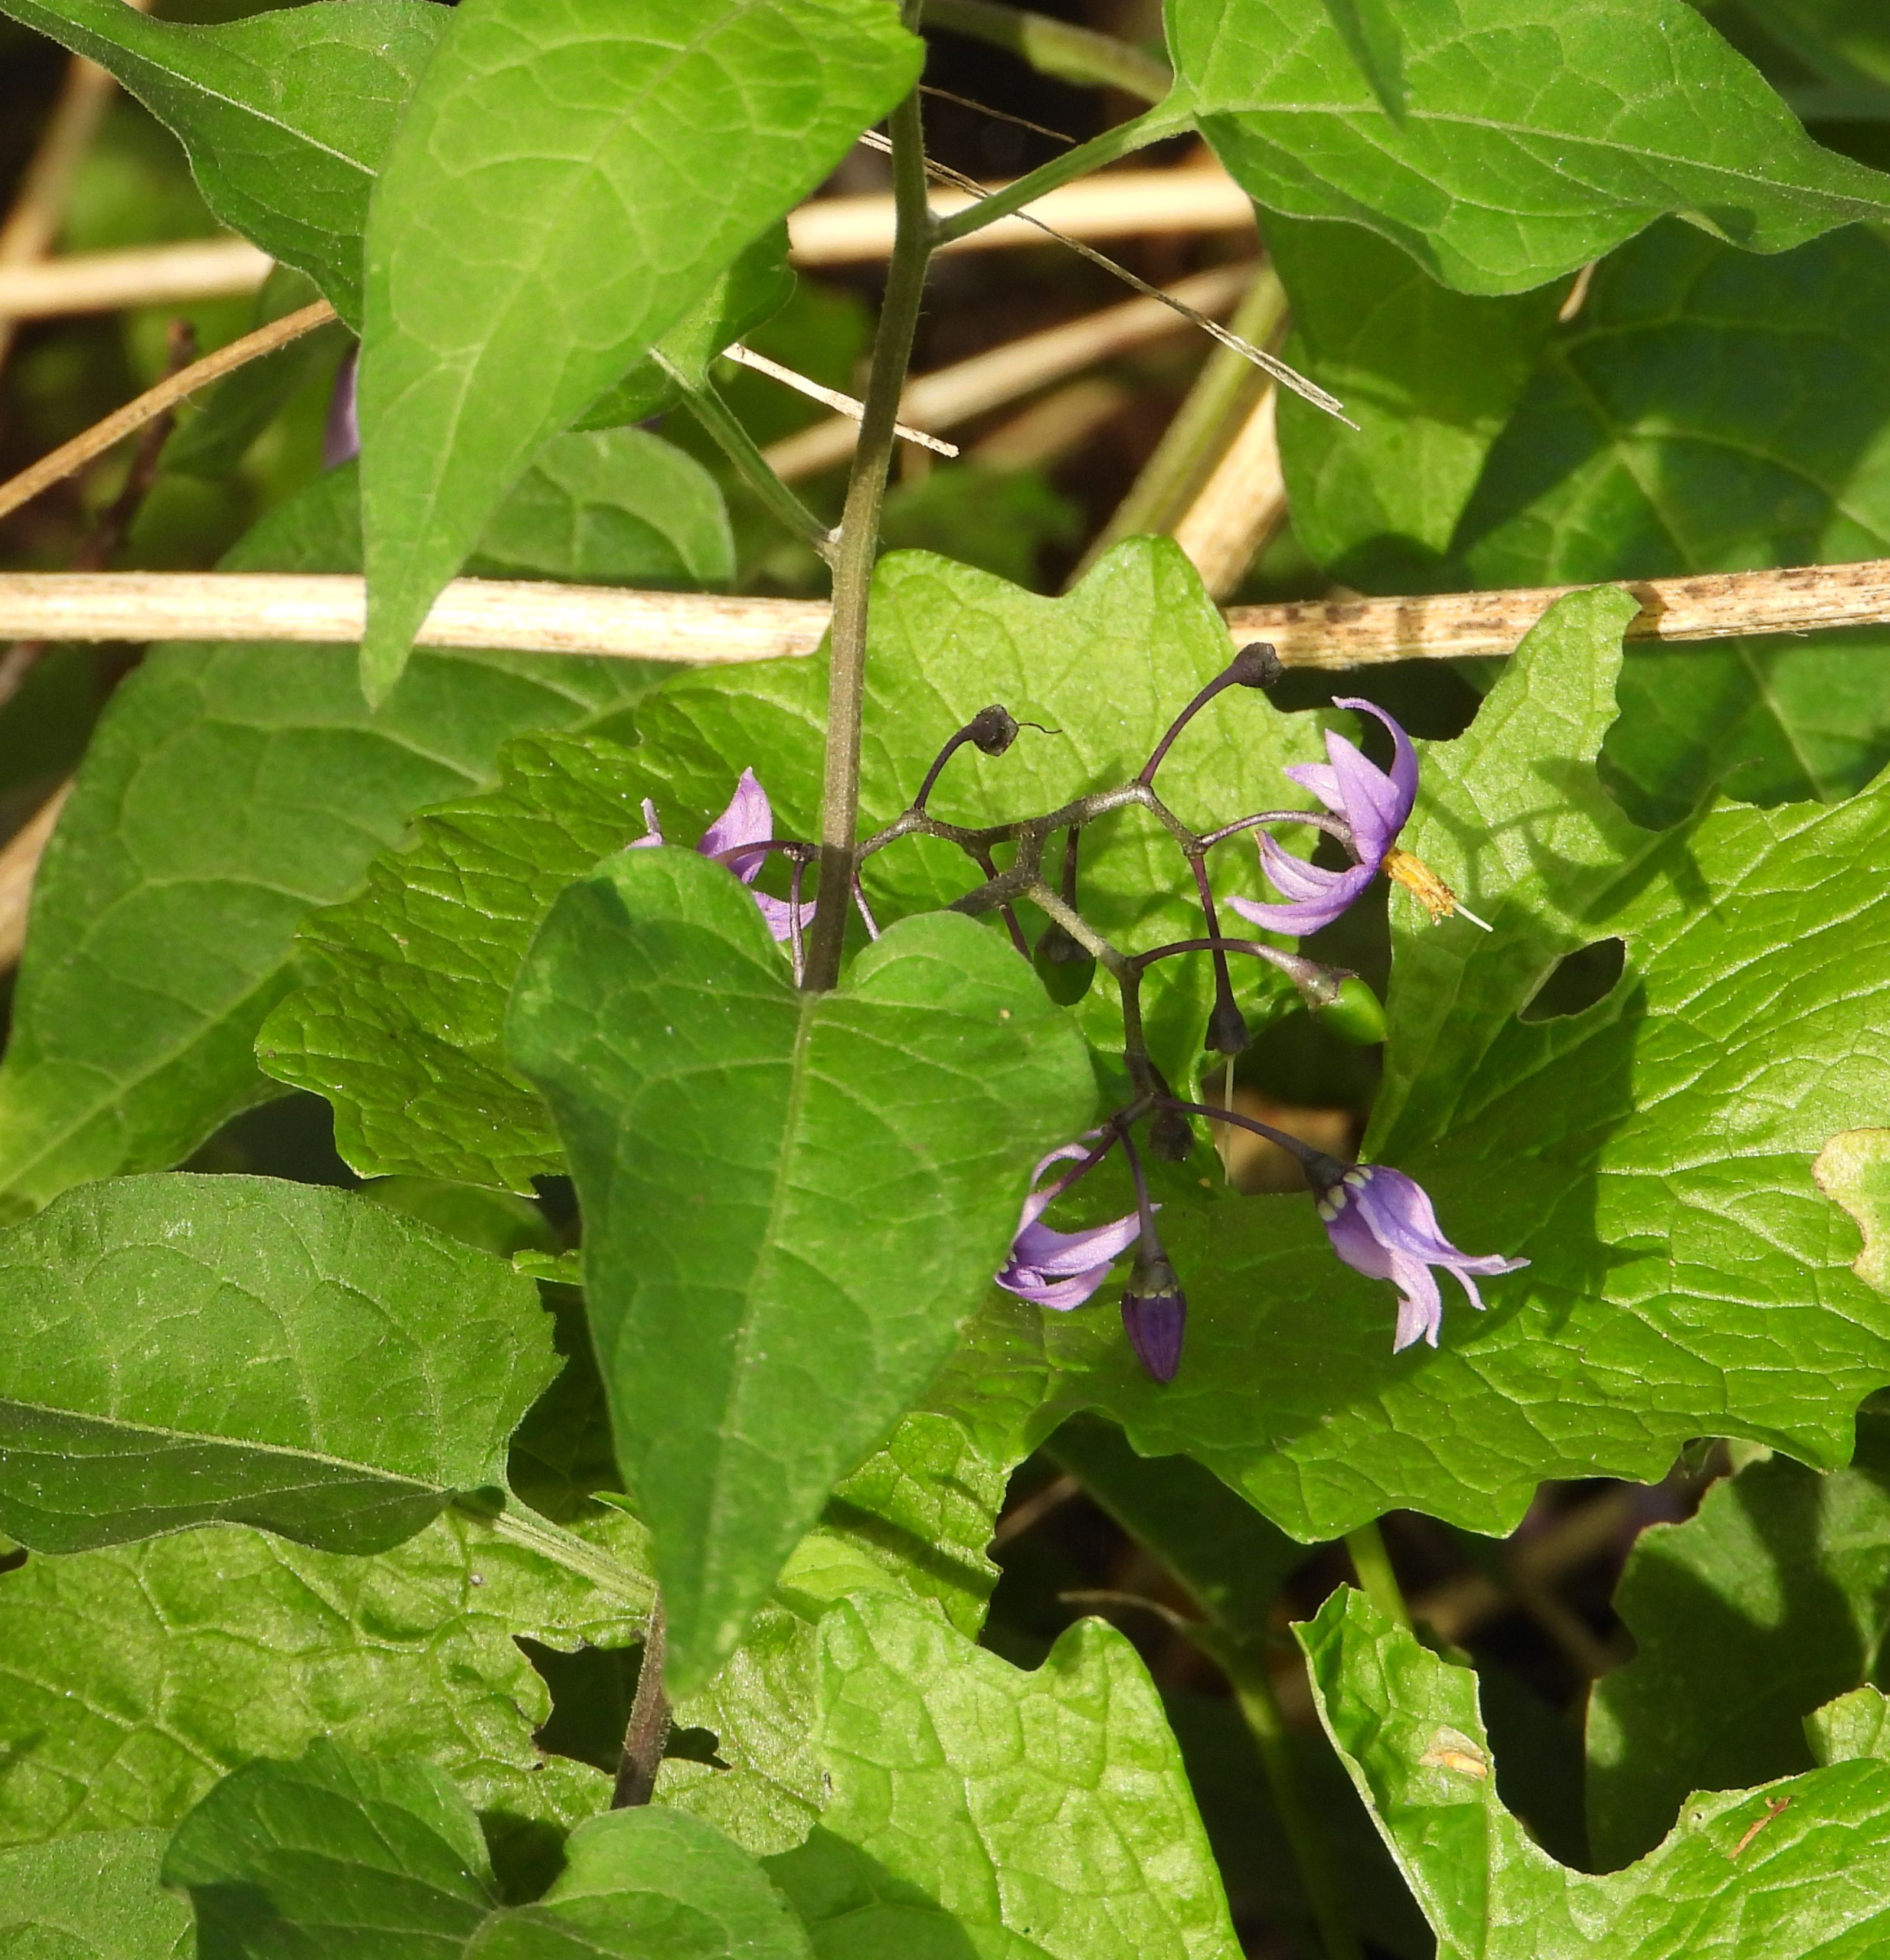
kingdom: Plantae
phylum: Tracheophyta
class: Magnoliopsida
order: Solanales
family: Solanaceae
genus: Solanum
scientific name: Solanum dulcamara
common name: Bittersød natskygge
